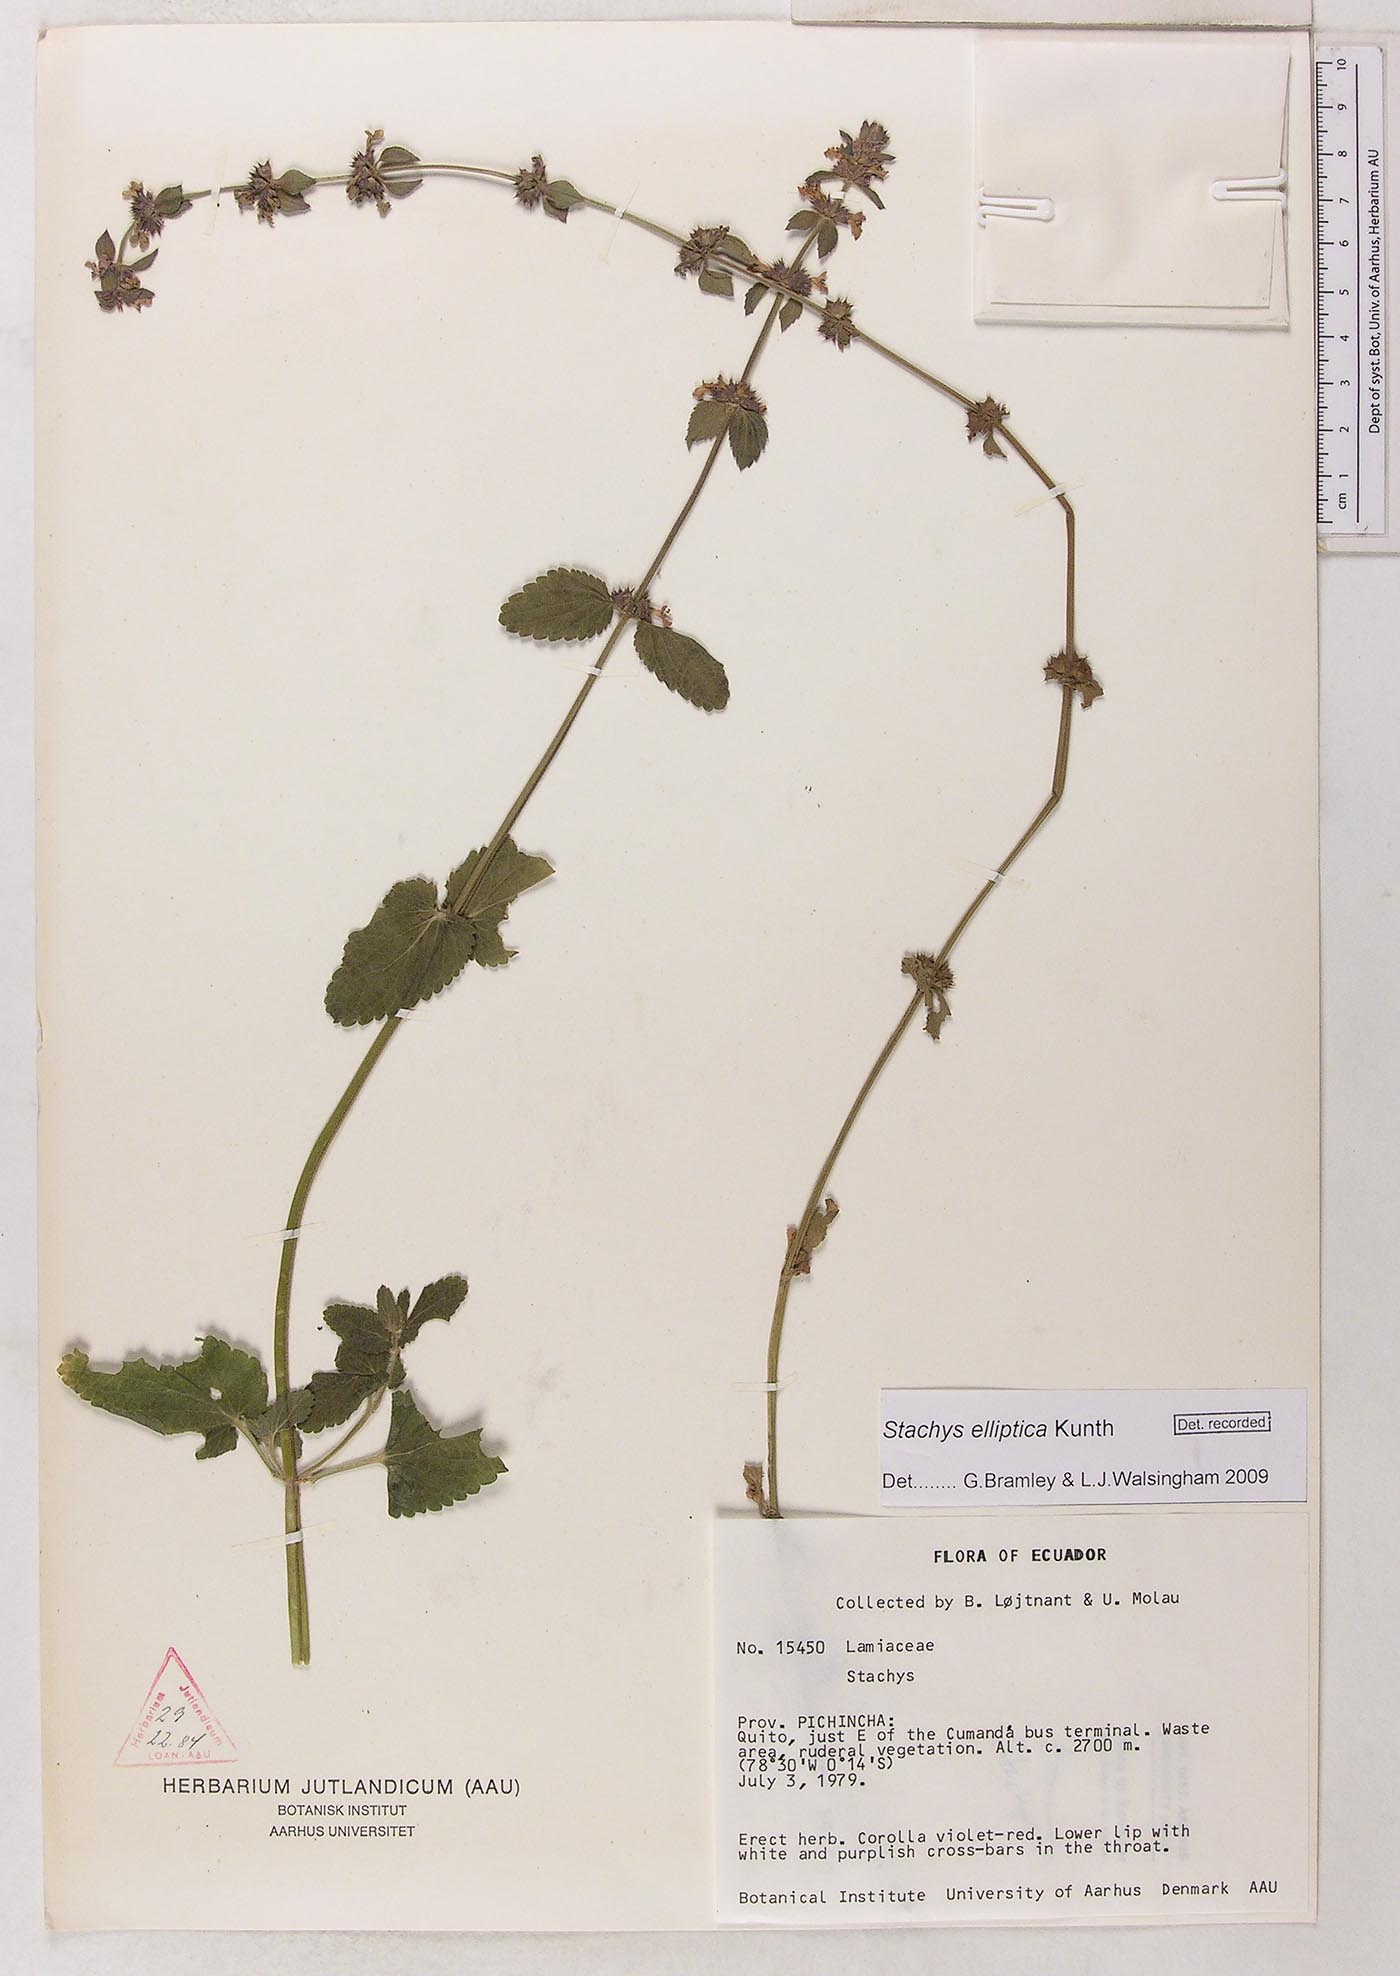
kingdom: Plantae
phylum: Tracheophyta
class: Magnoliopsida
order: Lamiales
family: Lamiaceae
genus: Stachys
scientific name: Stachys elliptica
